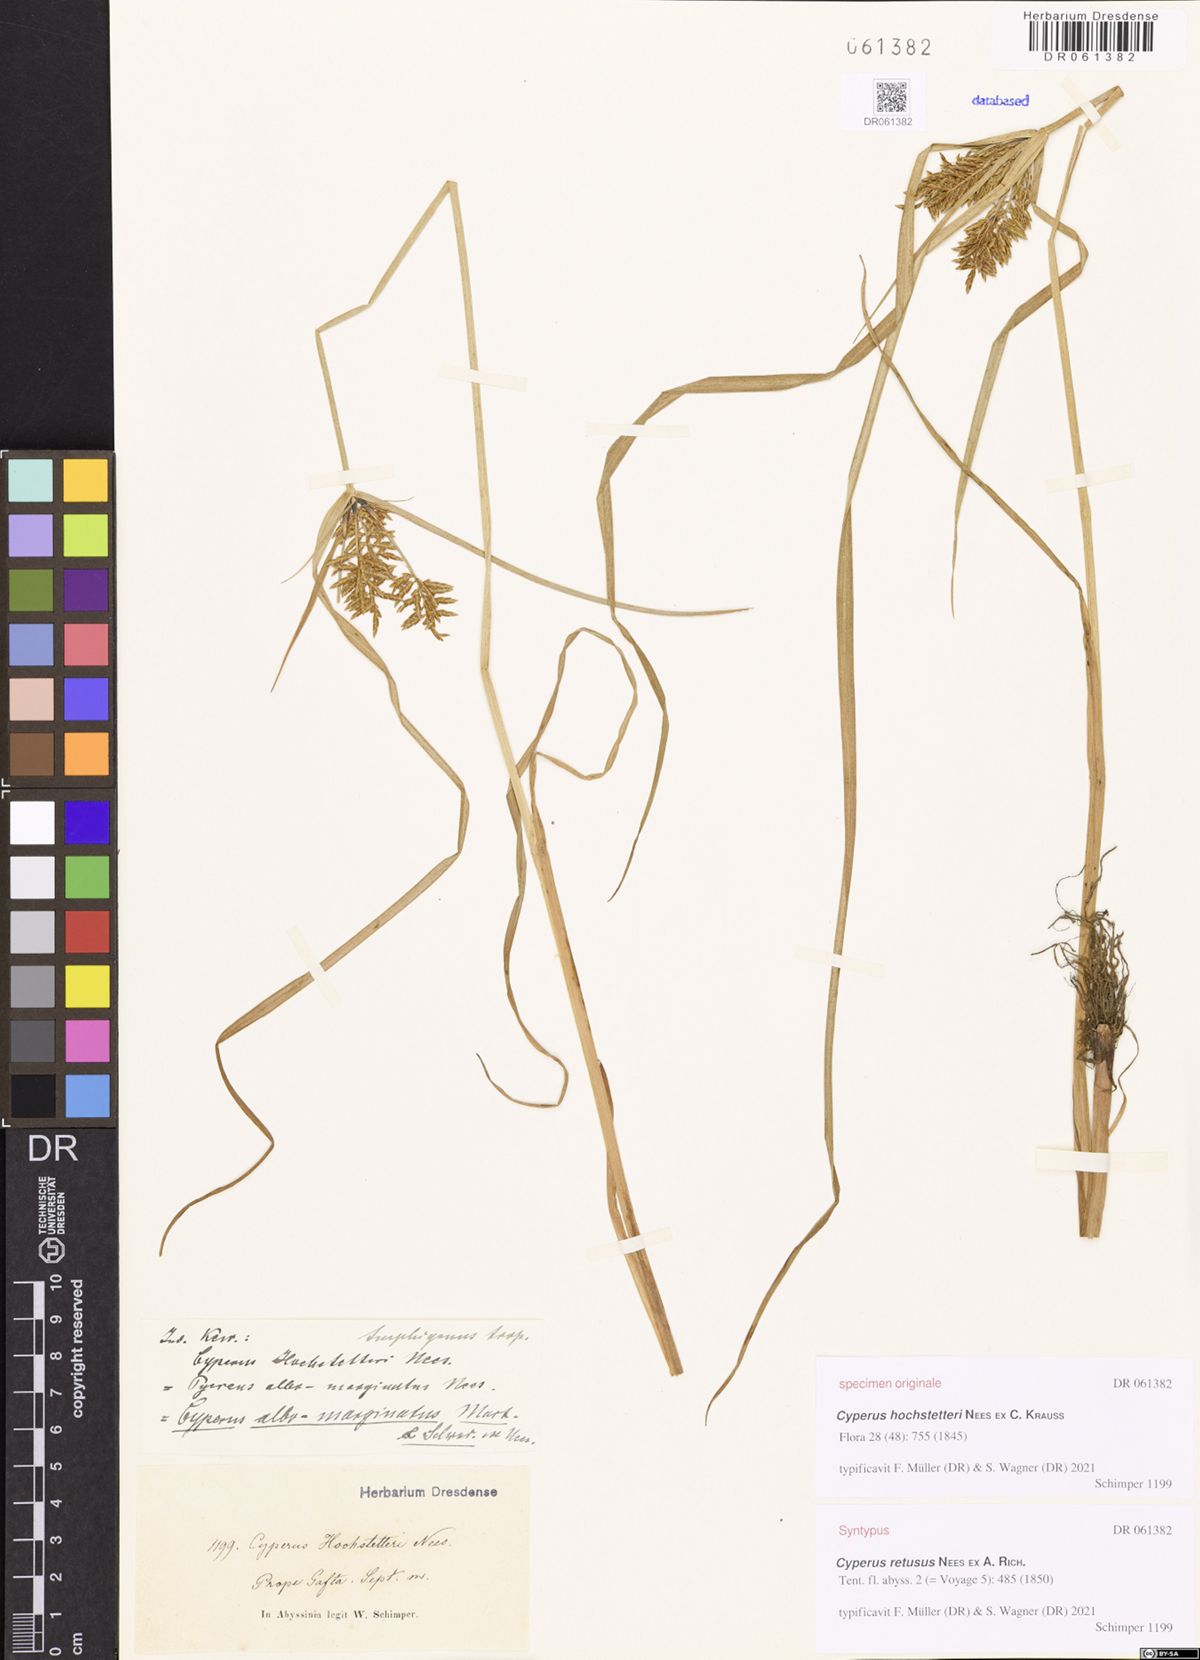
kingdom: Plantae
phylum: Tracheophyta
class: Liliopsida
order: Poales
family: Cyperaceae
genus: Cyperus
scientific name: Cyperus macrostachyos
